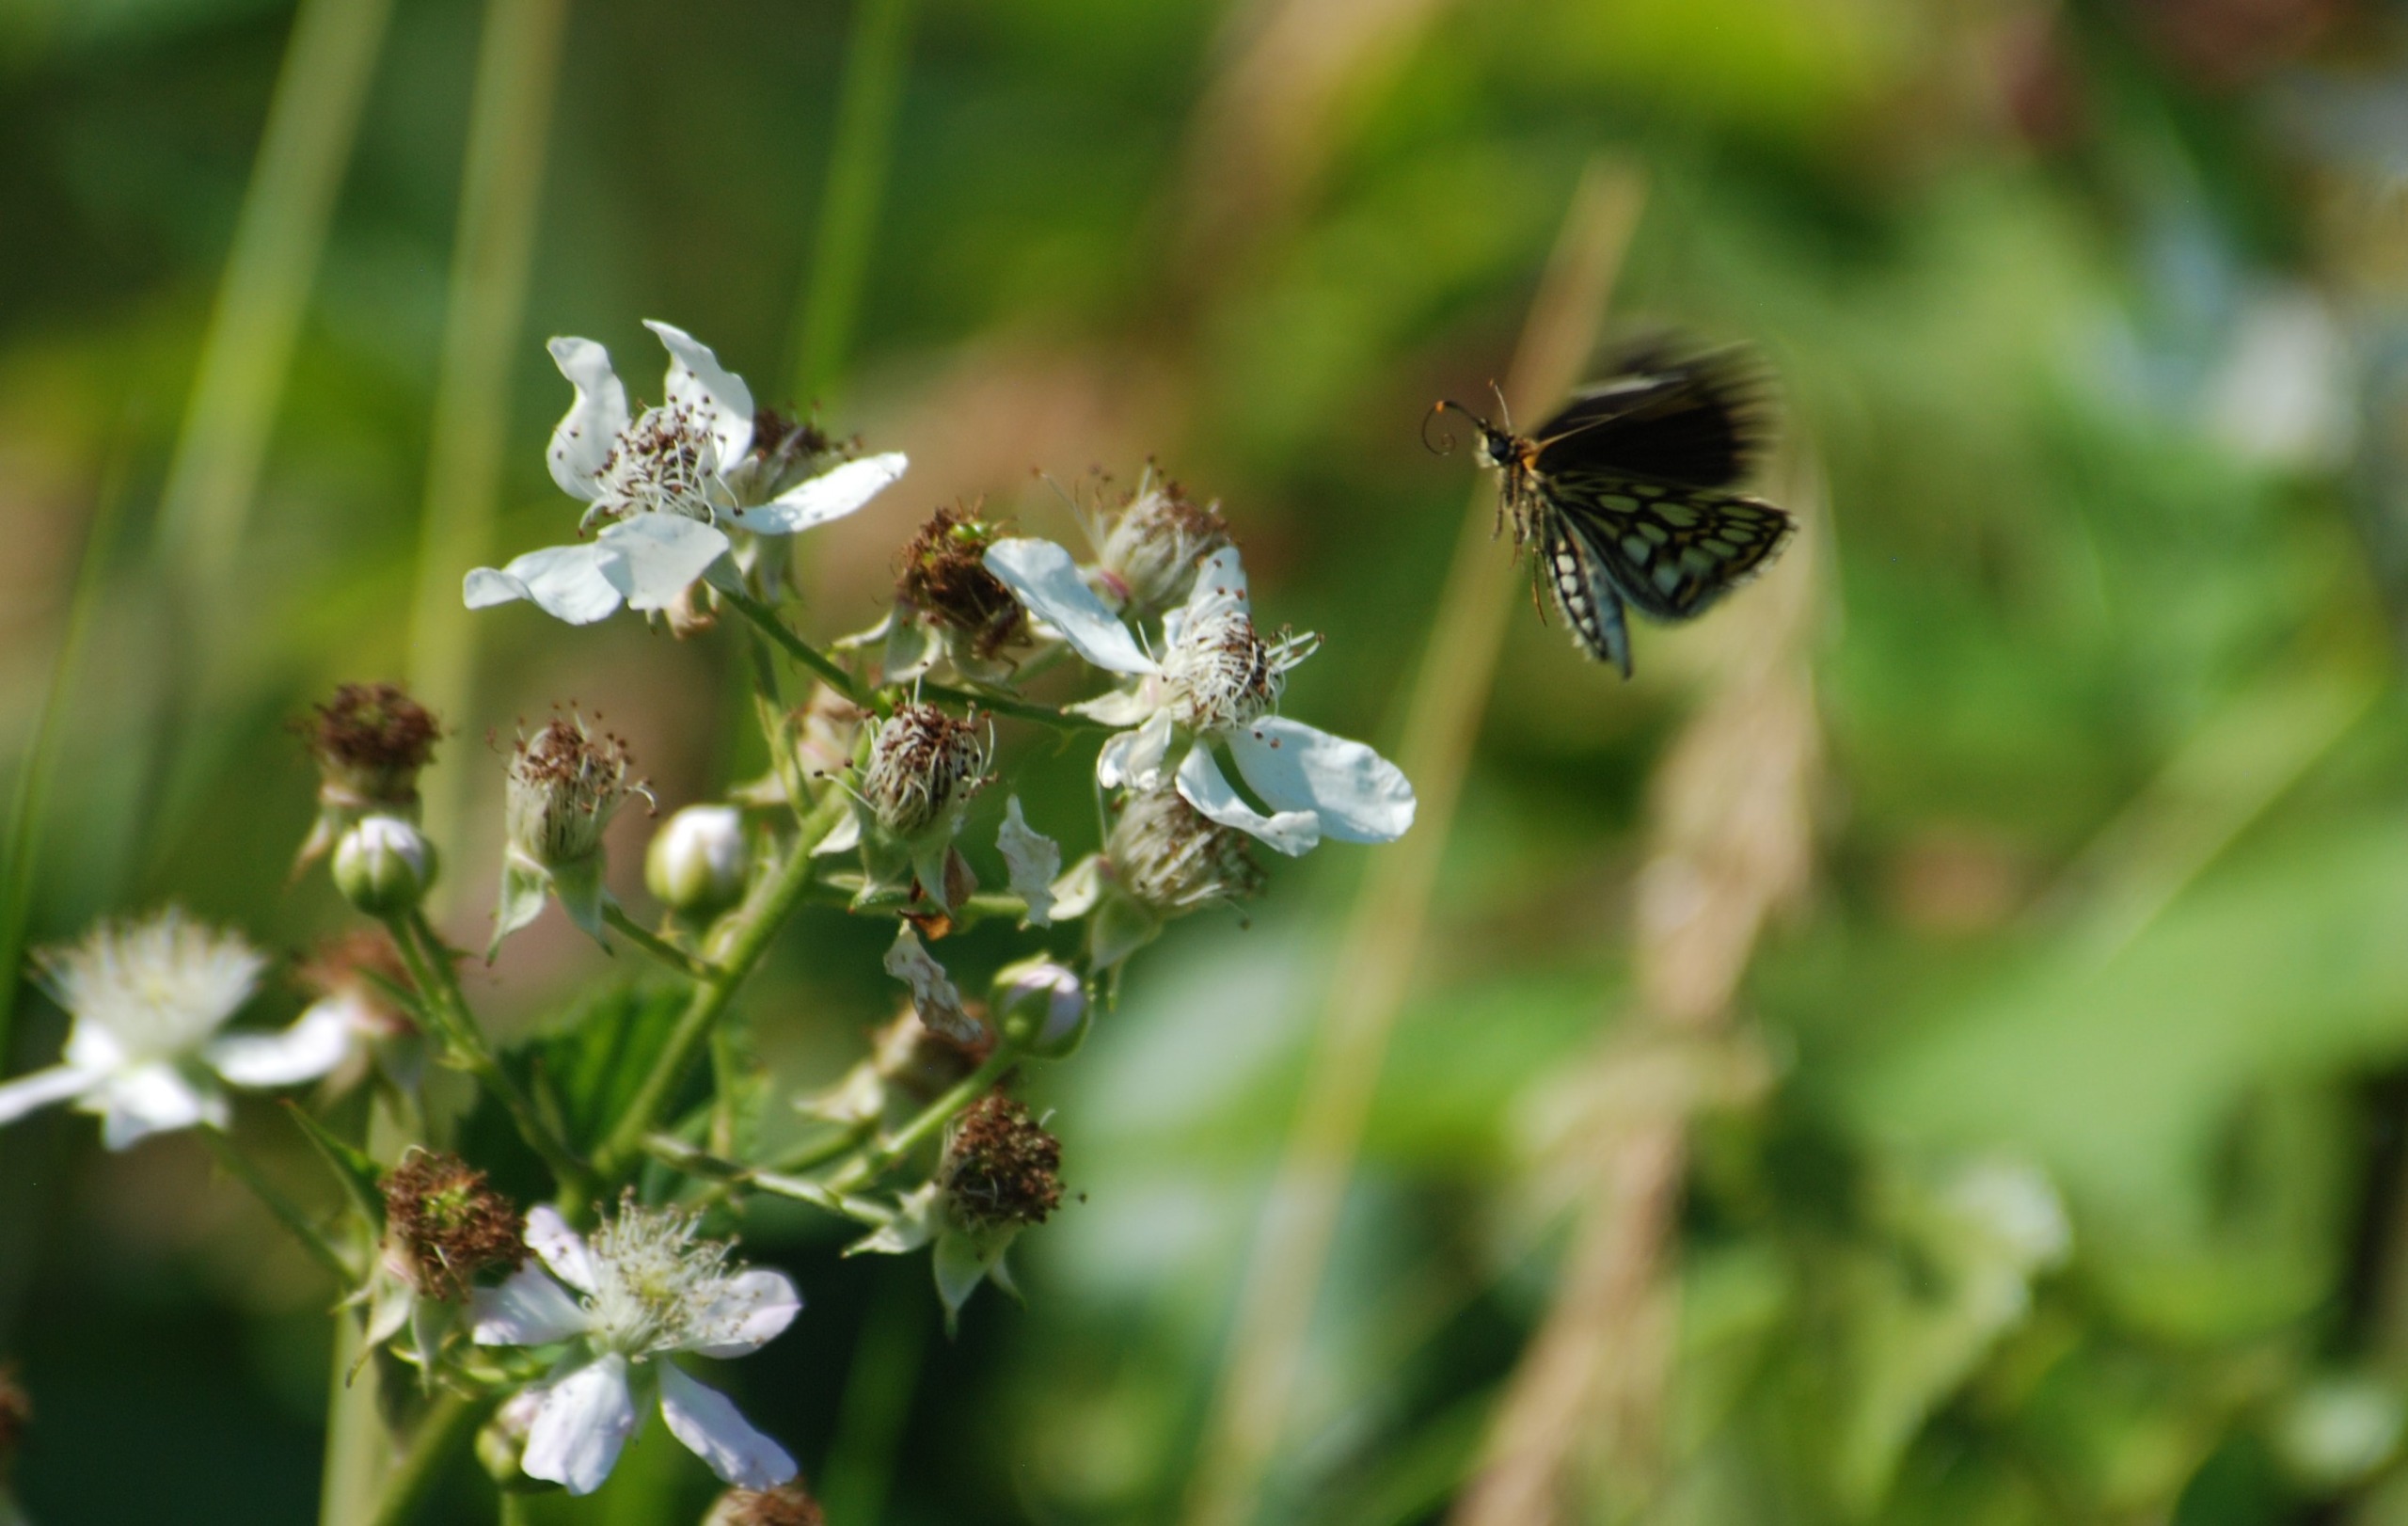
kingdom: Animalia
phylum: Arthropoda
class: Insecta
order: Lepidoptera
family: Hesperiidae
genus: Heteropterus
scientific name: Heteropterus morpheus
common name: Spejlbredpande
